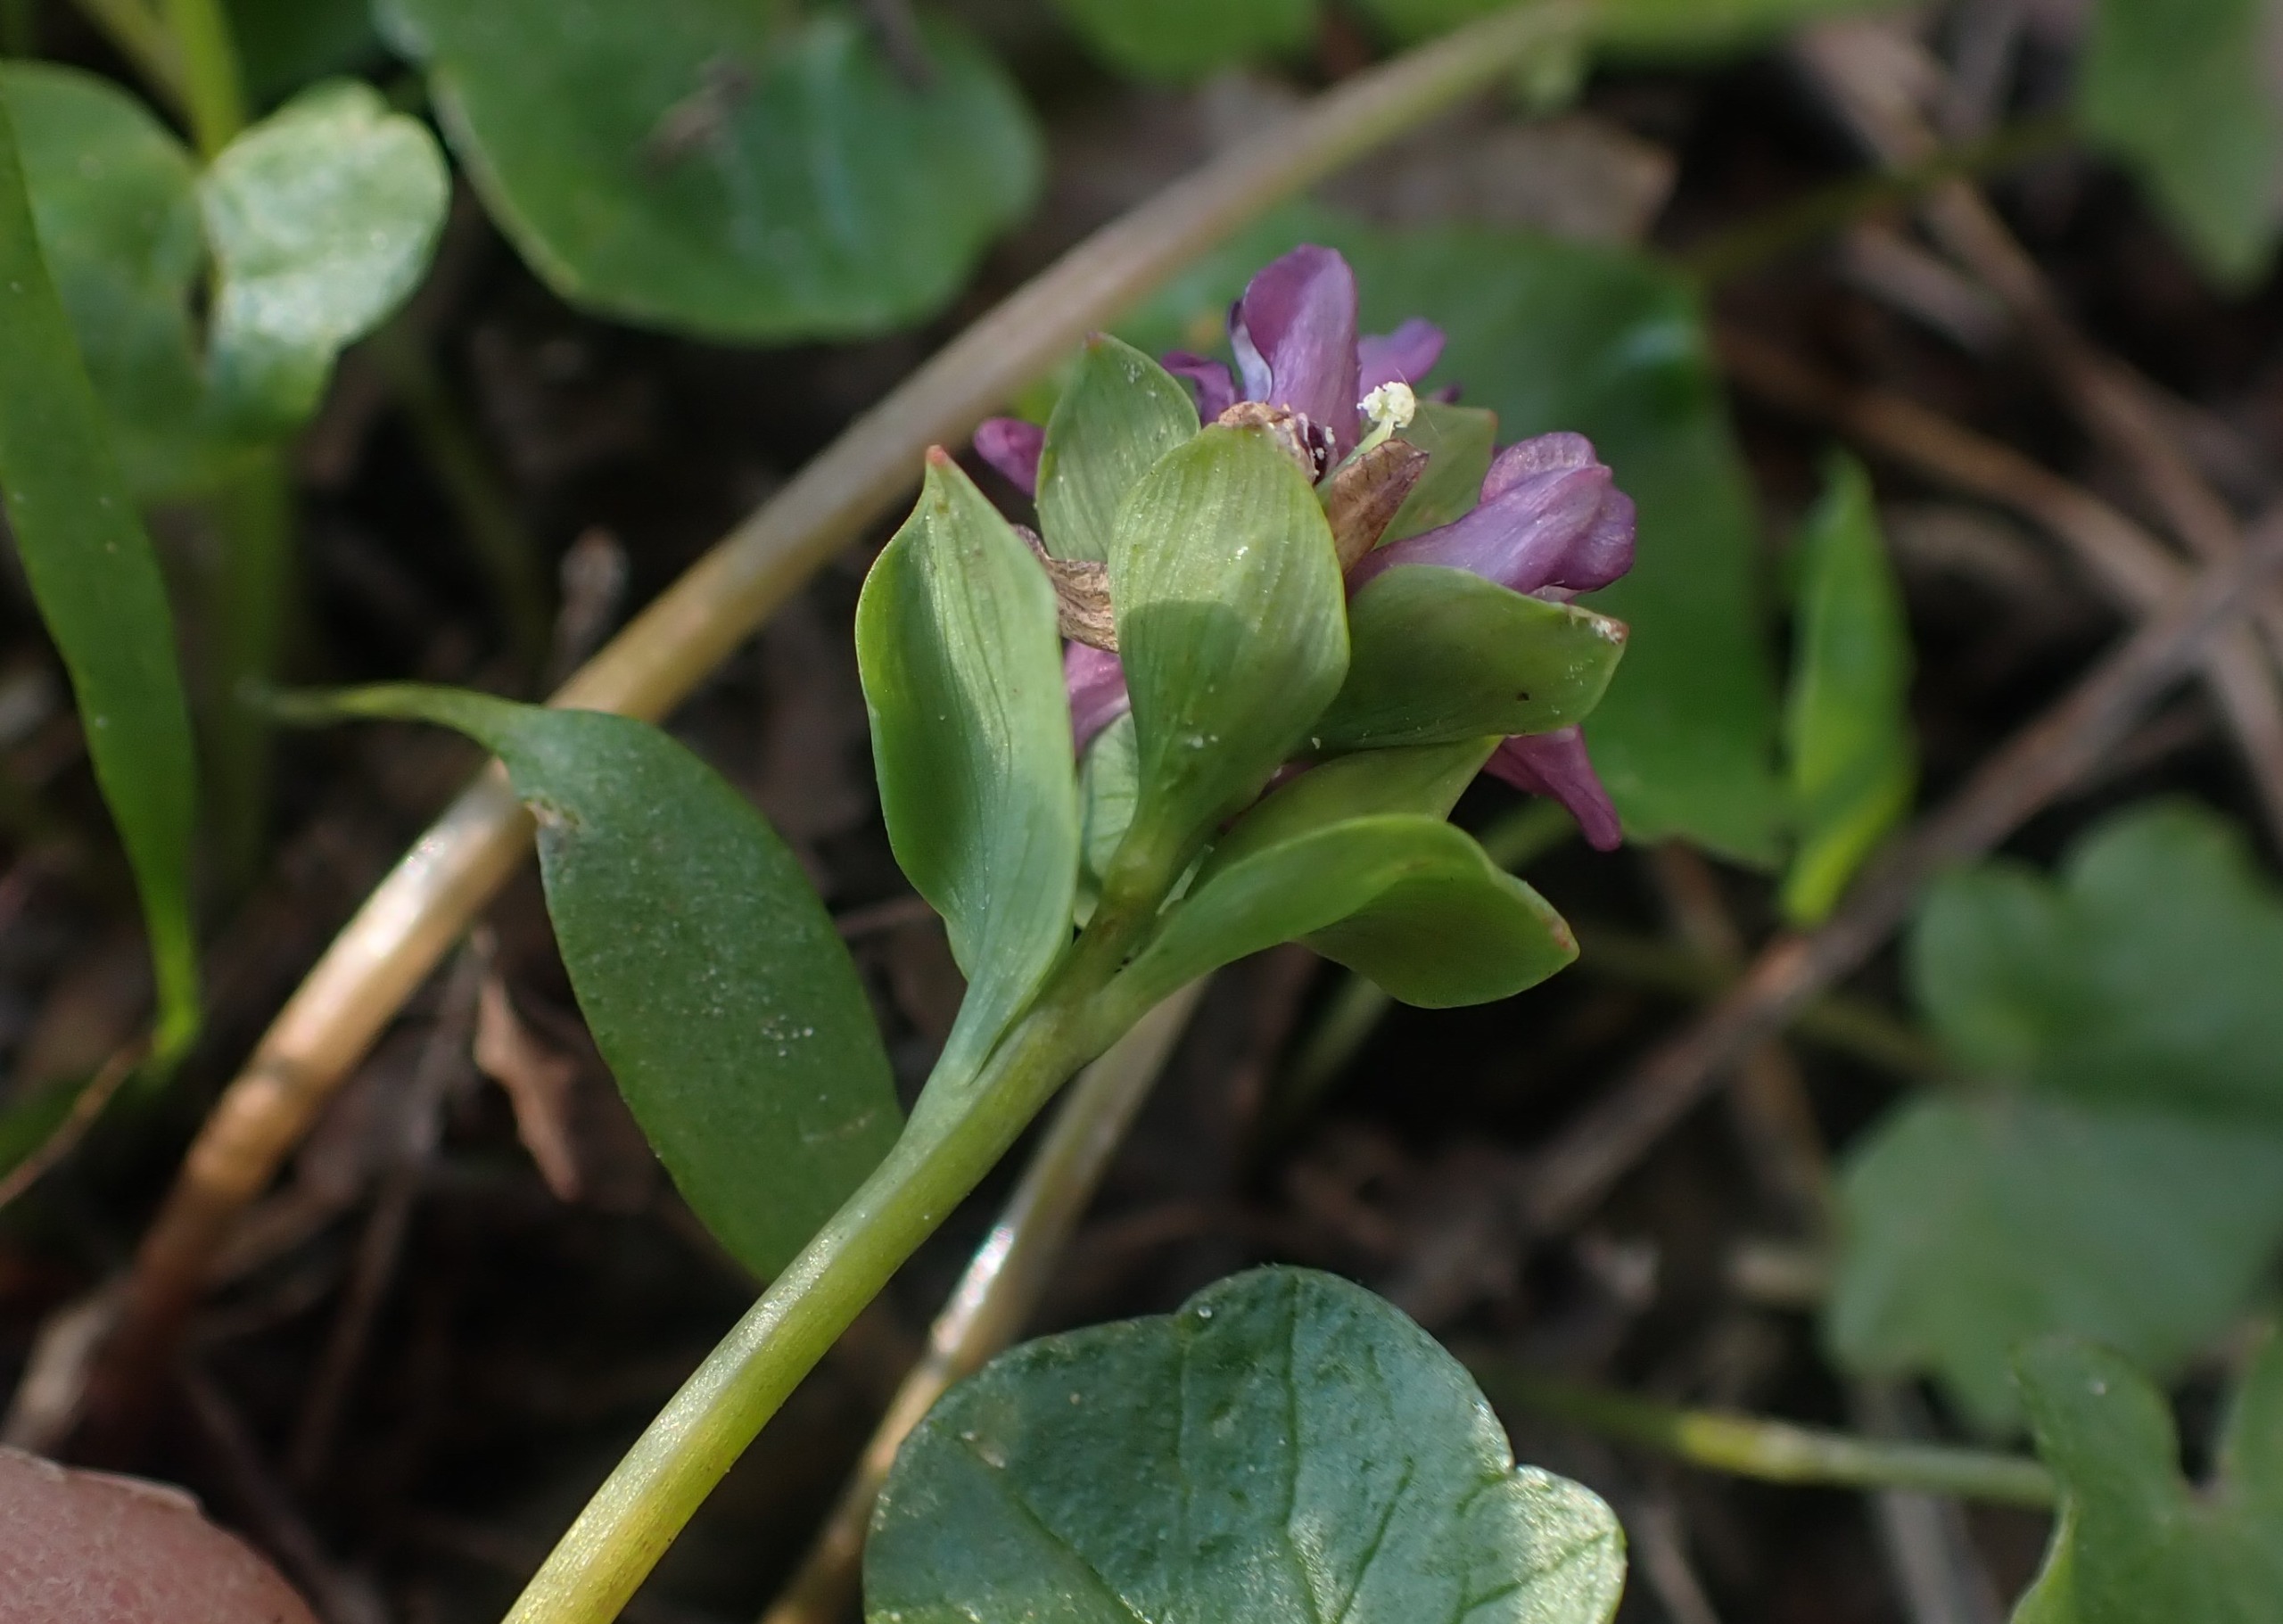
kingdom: Plantae
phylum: Tracheophyta
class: Magnoliopsida
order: Ranunculales
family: Papaveraceae
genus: Corydalis
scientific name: Corydalis intermedia
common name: Liden lærkespore
